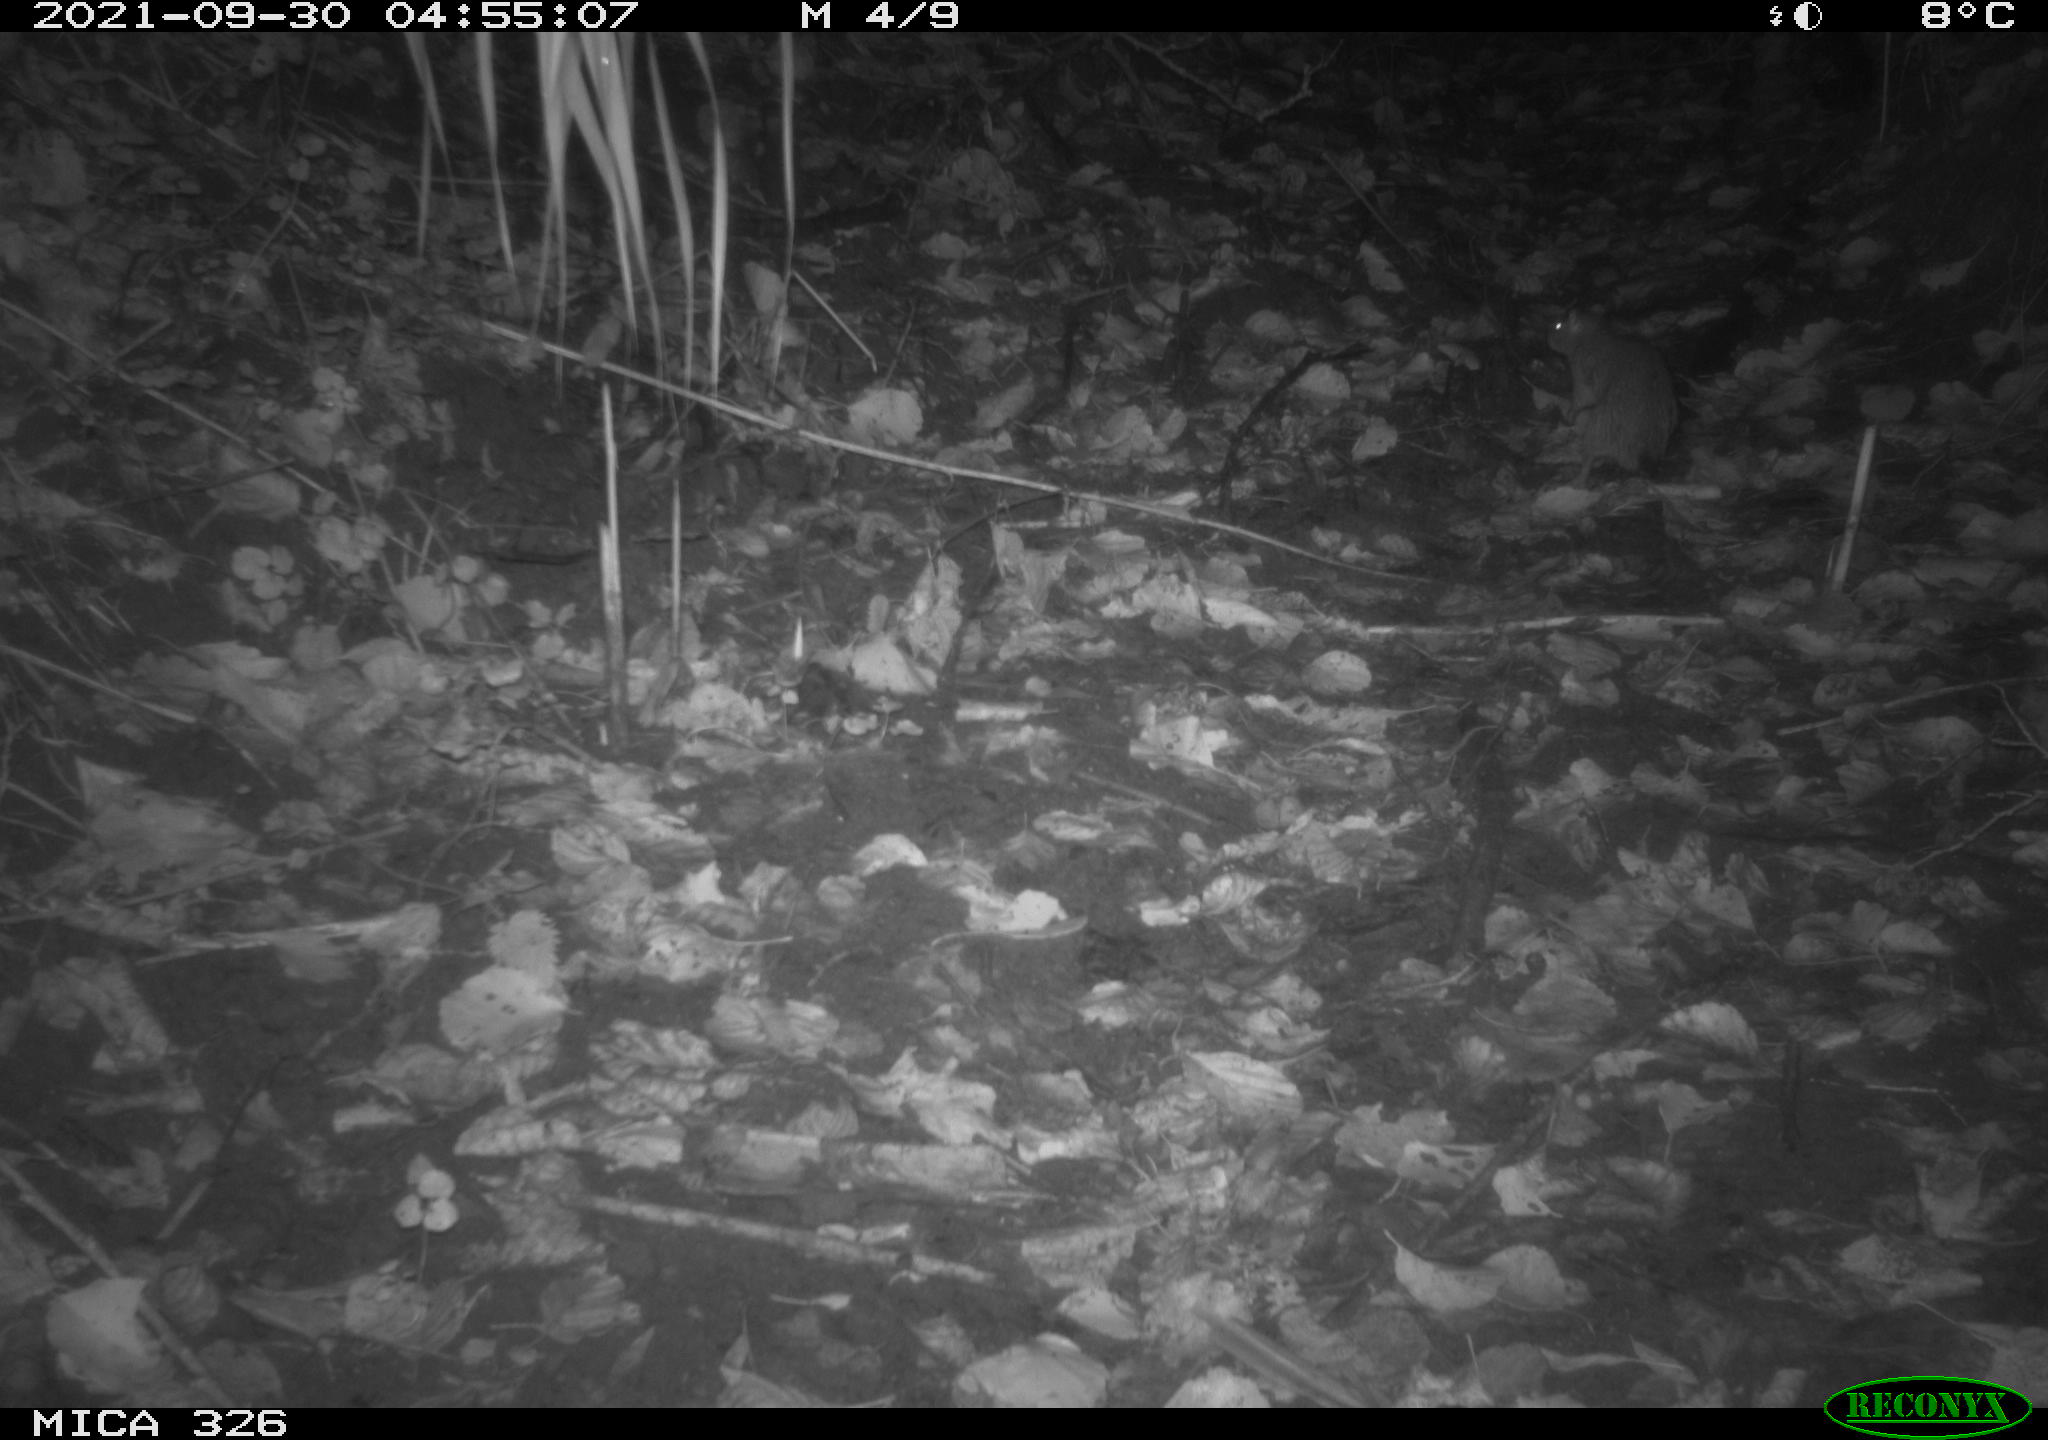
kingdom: Animalia
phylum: Chordata
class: Mammalia
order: Rodentia
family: Muridae
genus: Rattus
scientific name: Rattus norvegicus
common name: Brown rat
